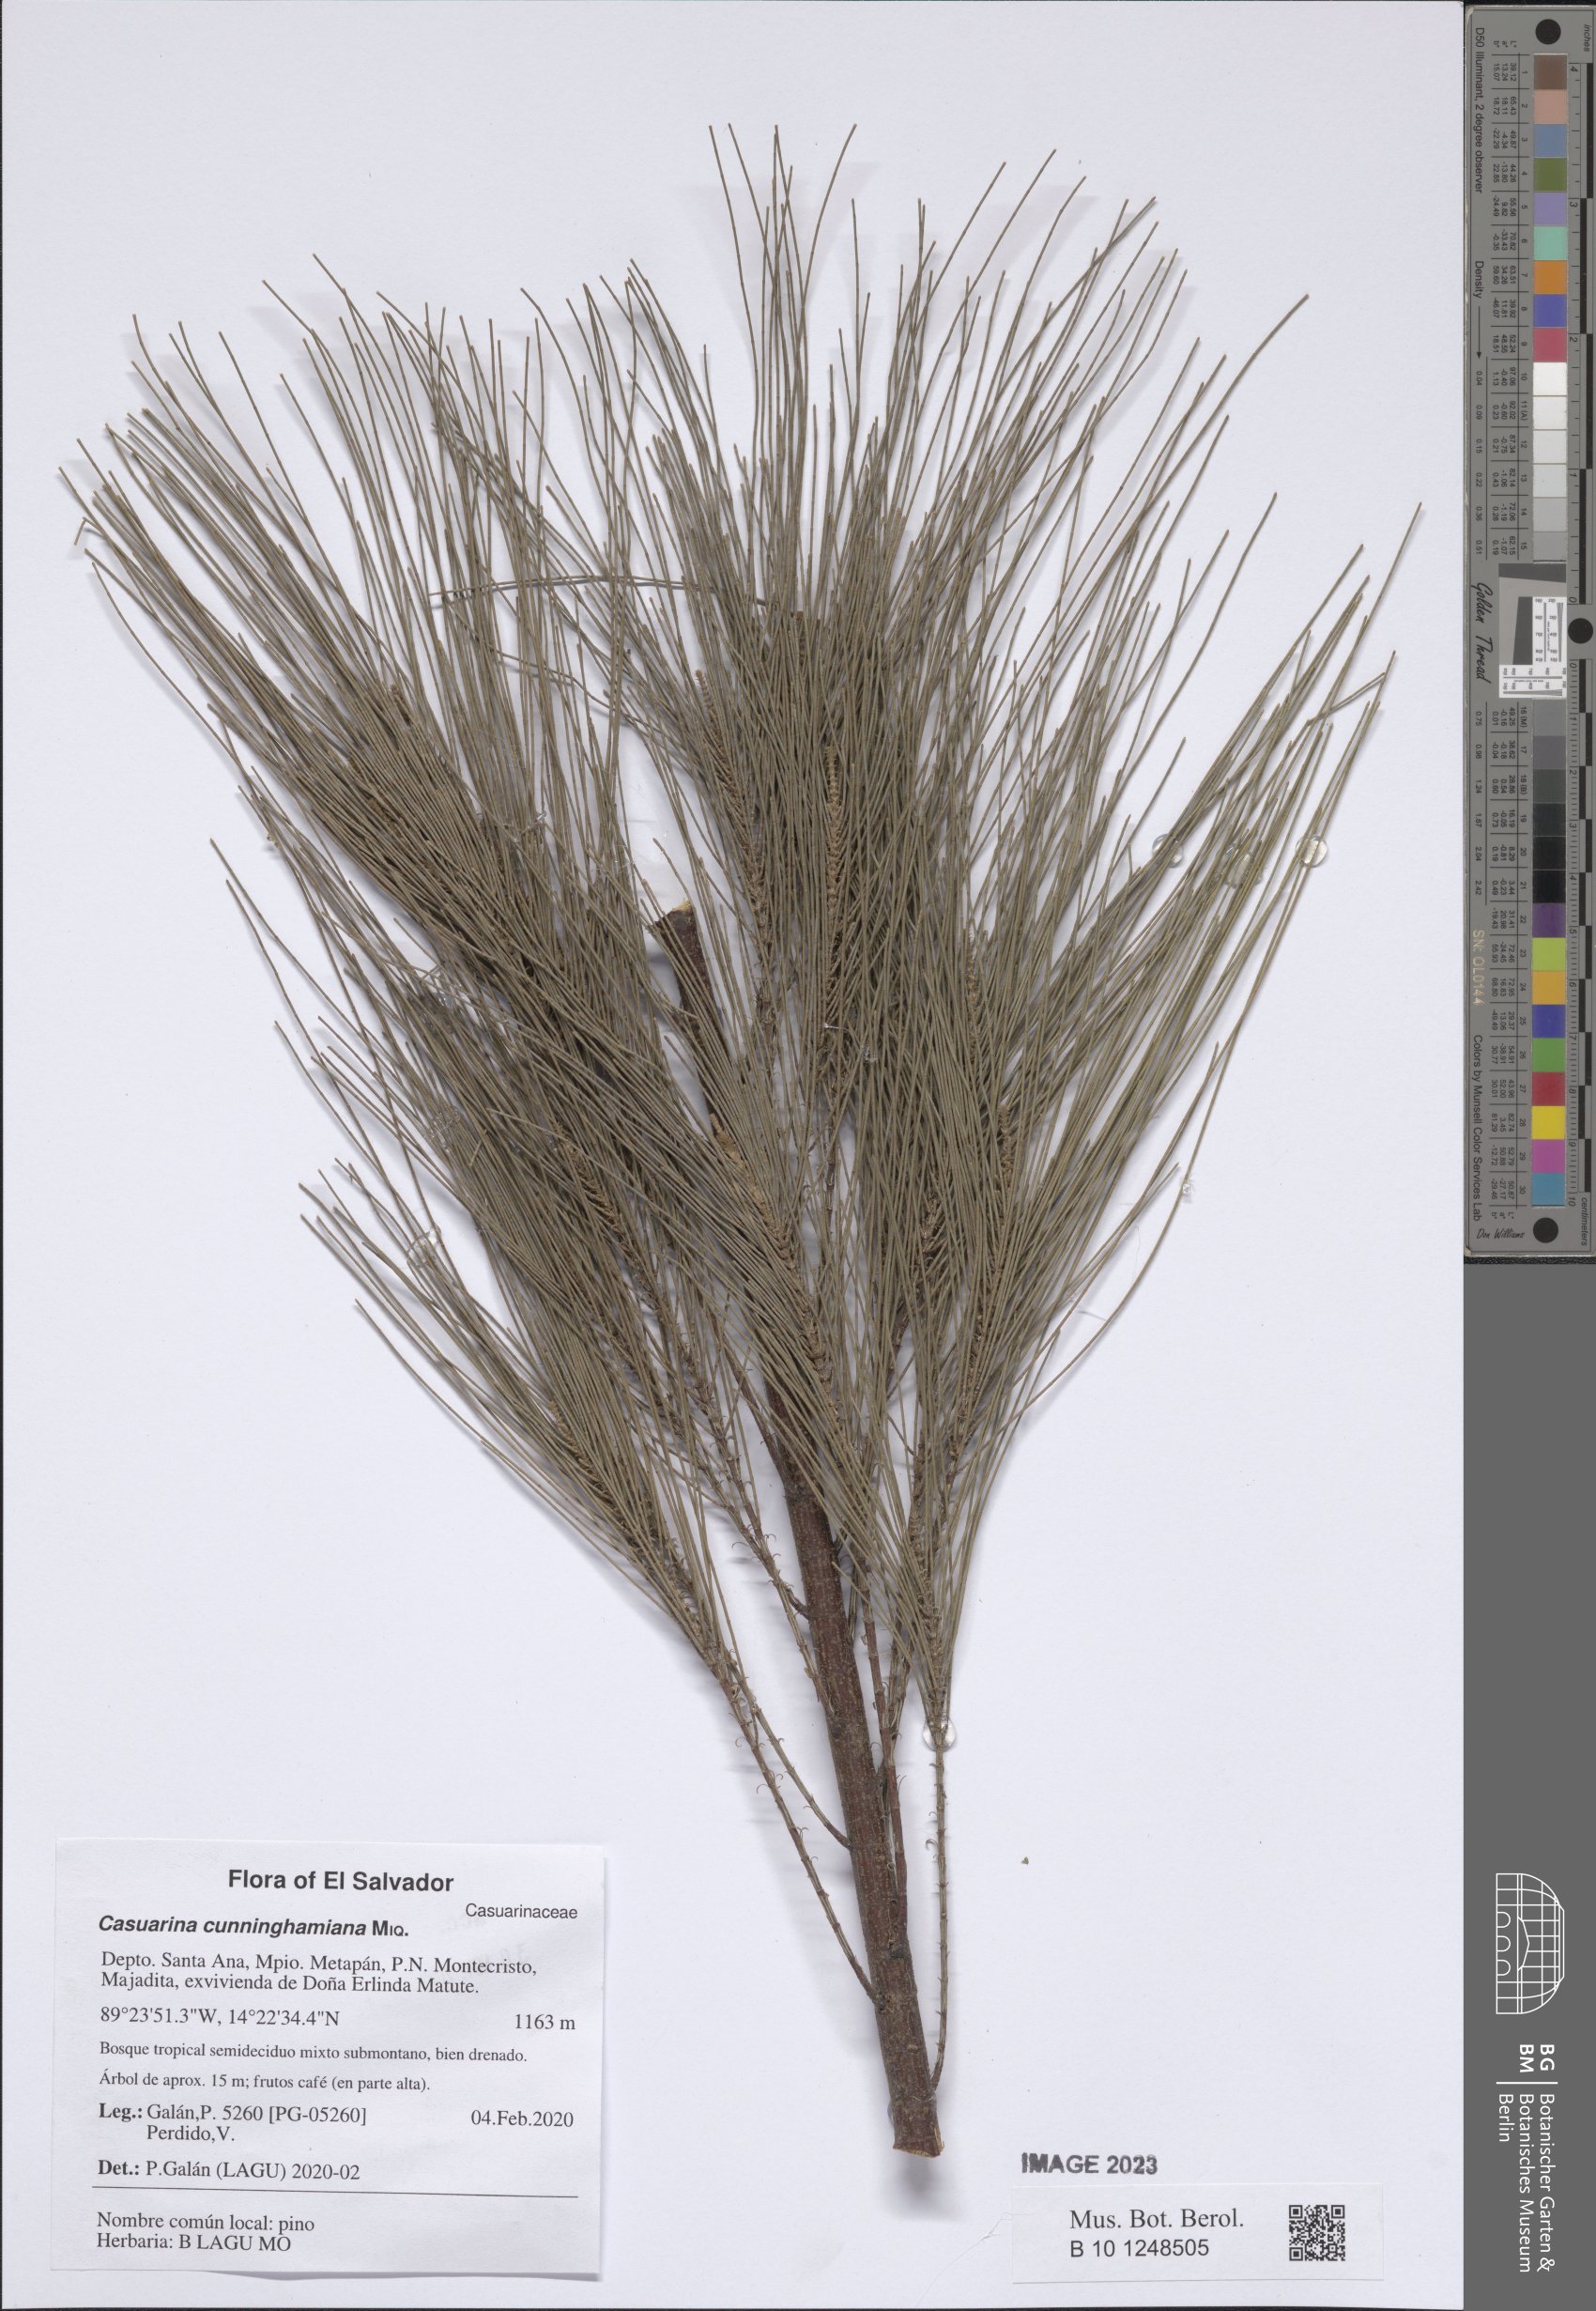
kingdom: Plantae
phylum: Tracheophyta
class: Magnoliopsida
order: Fagales
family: Casuarinaceae
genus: Casuarina
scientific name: Casuarina cunninghamiana
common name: River sheoak
